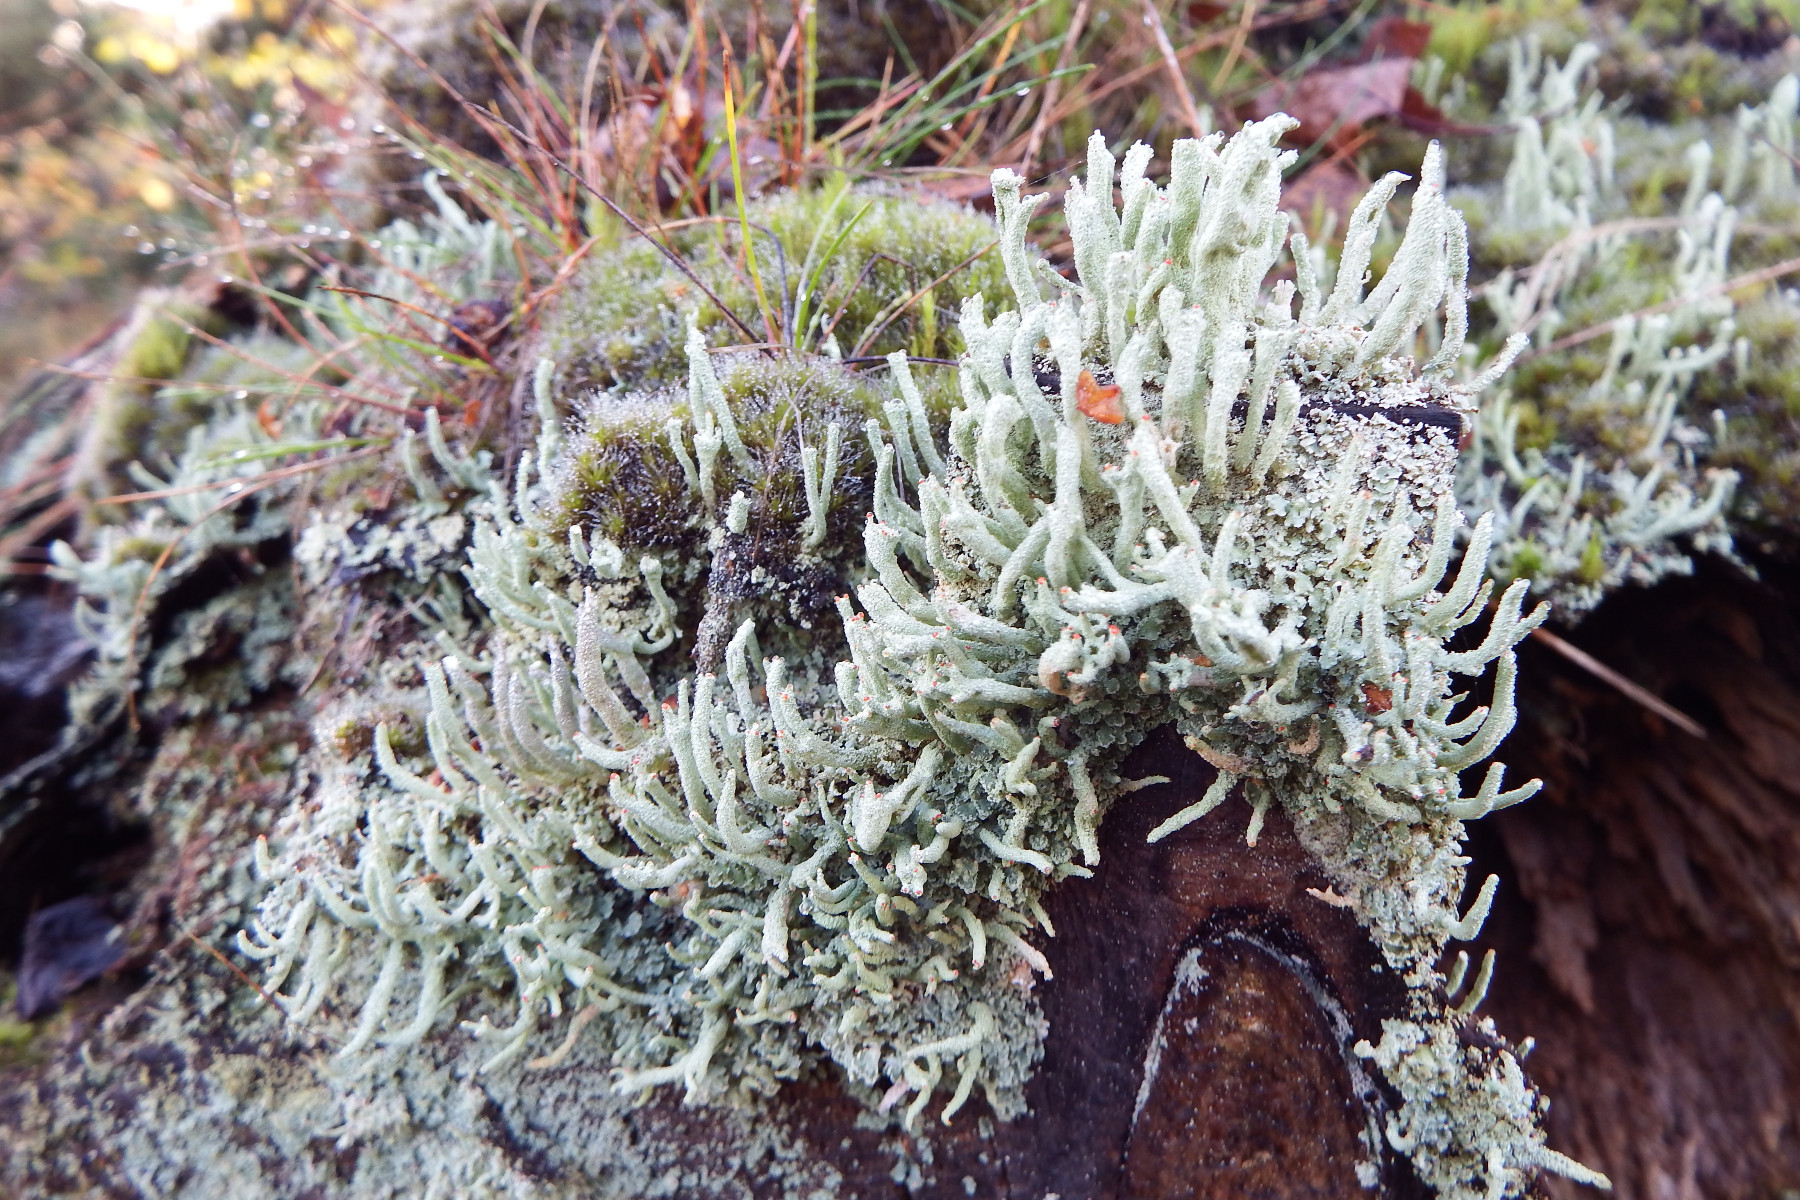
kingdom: Fungi
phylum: Ascomycota
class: Lecanoromycetes
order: Lecanorales
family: Cladoniaceae
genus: Cladonia
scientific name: Cladonia polydactyla
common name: vifte-bægerlav
